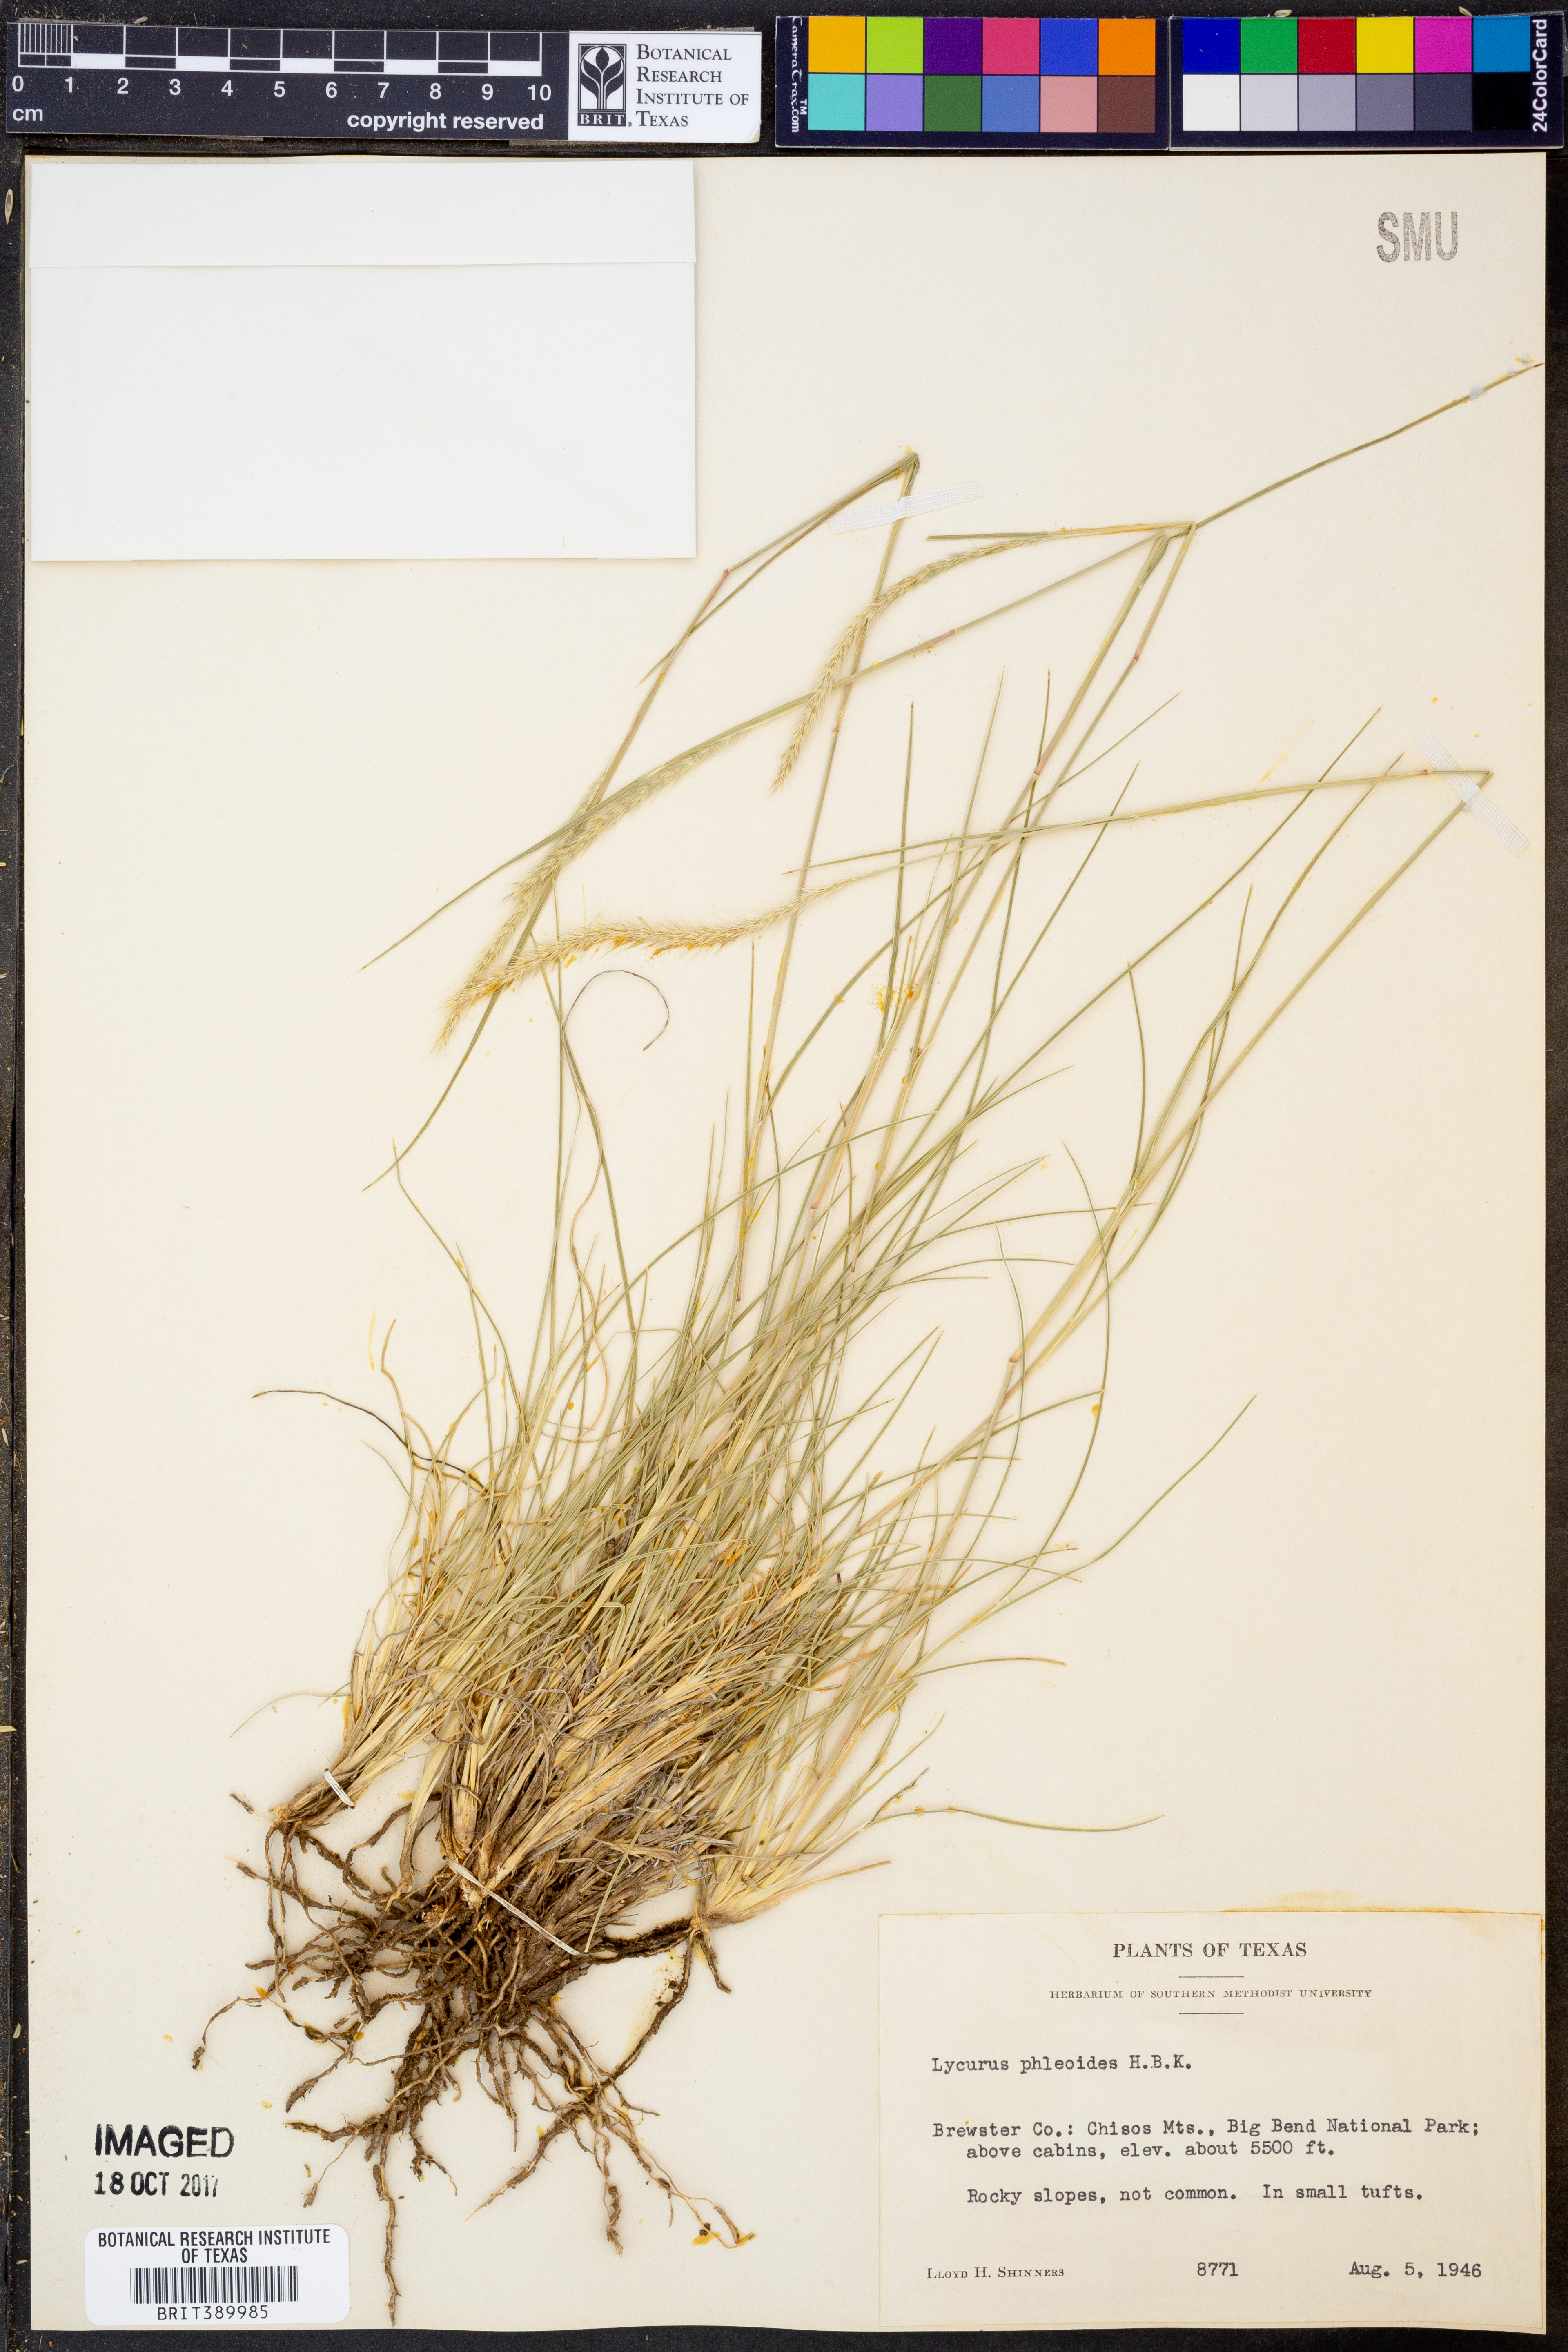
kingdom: Plantae
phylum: Tracheophyta
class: Liliopsida
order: Poales
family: Poaceae
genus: Muhlenbergia
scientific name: Muhlenbergia phleoides
